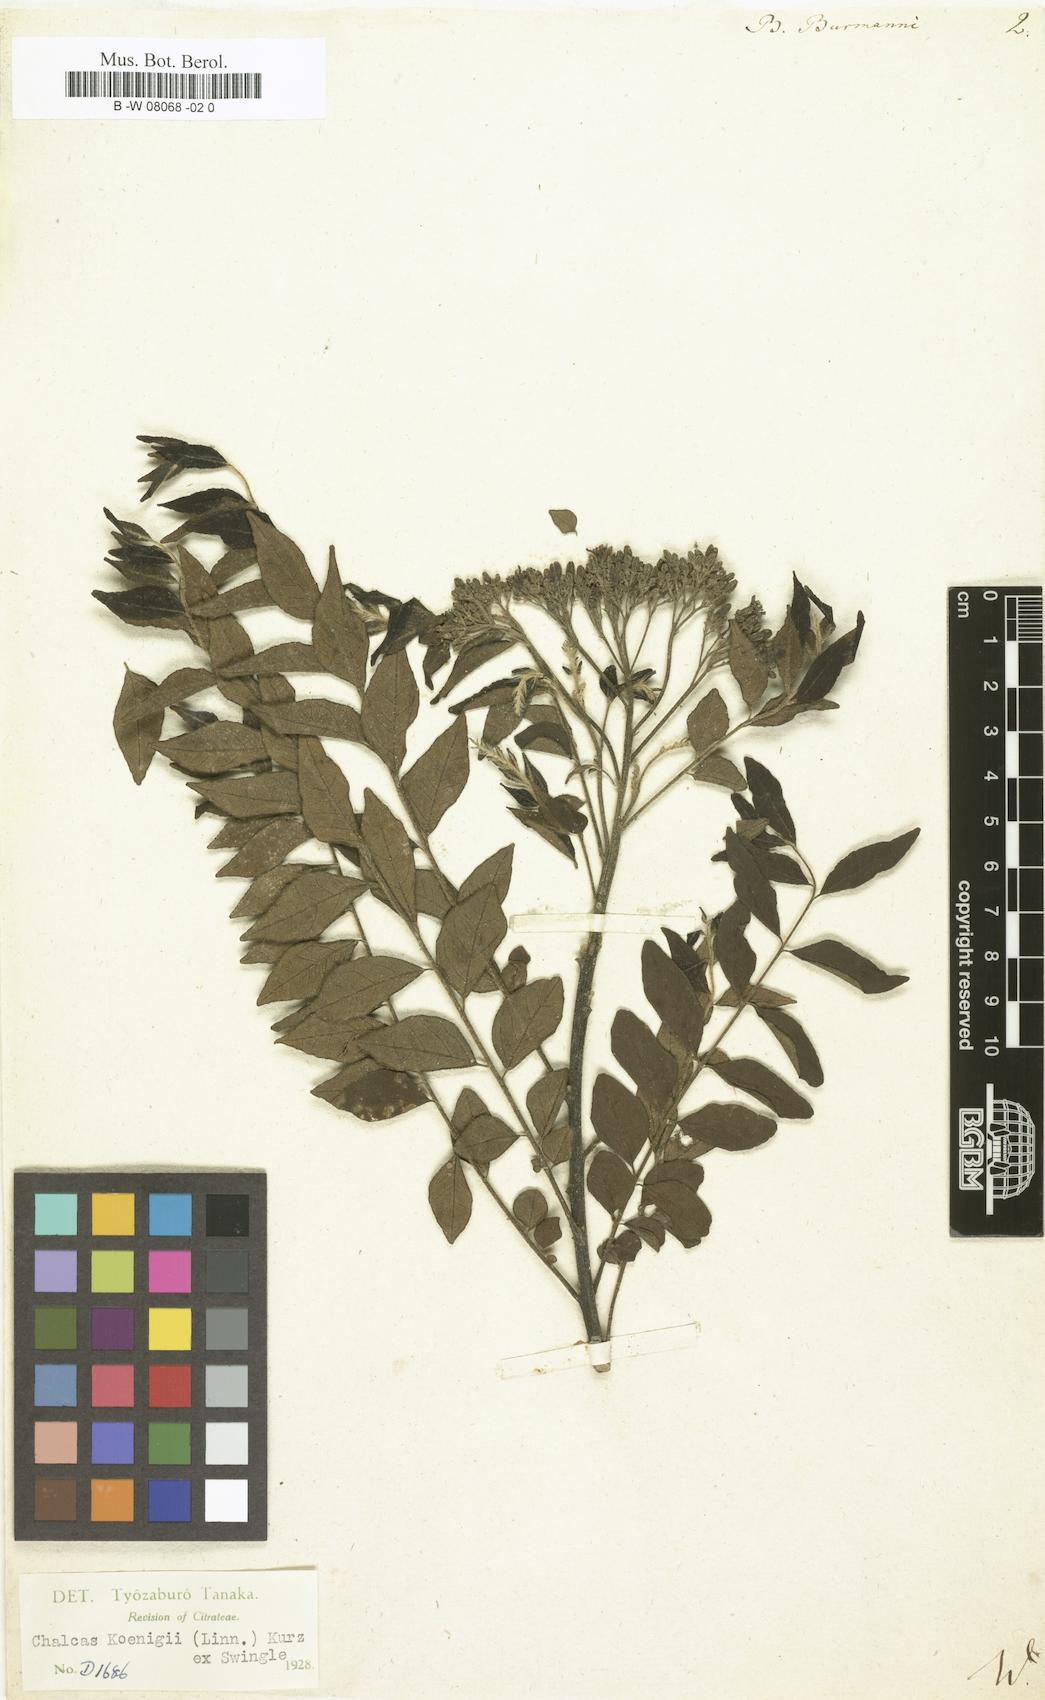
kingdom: Plantae
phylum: Tracheophyta
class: Magnoliopsida
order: Sapindales
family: Rutaceae
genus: Murraya
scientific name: Murraya koenigii
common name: Curry-plant
